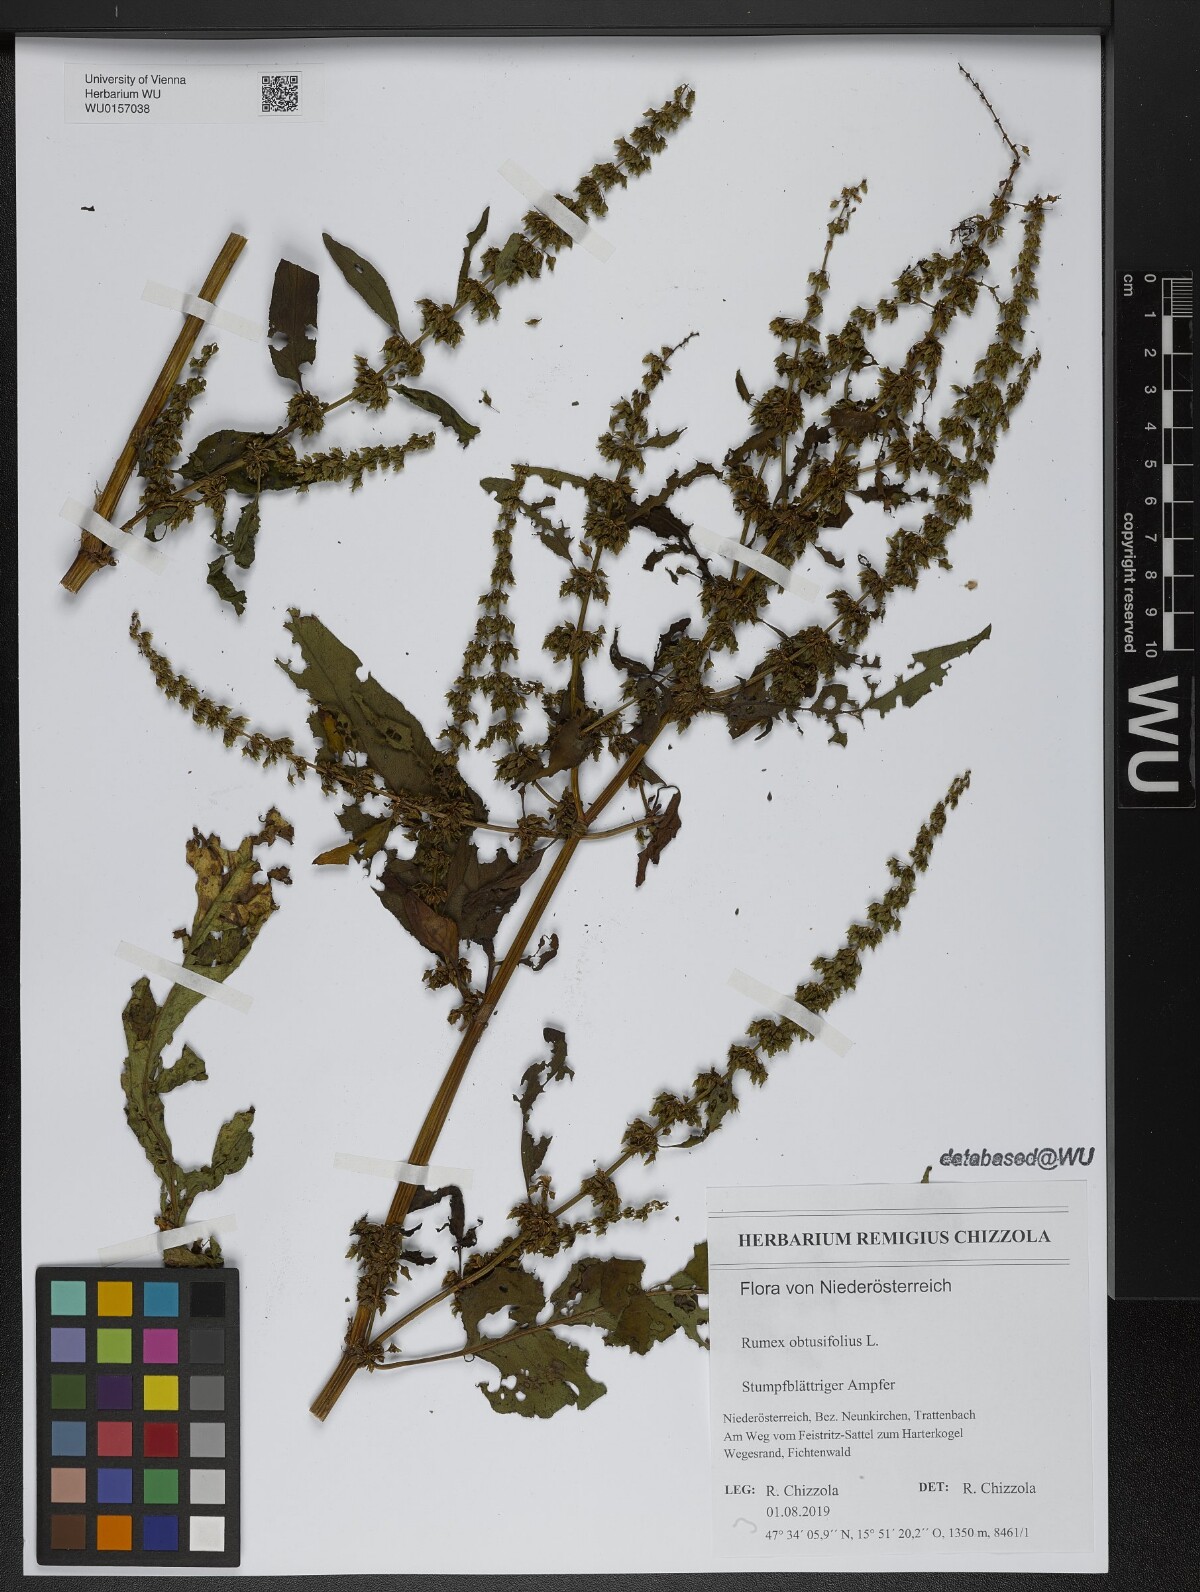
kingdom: Plantae
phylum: Tracheophyta
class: Magnoliopsida
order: Caryophyllales
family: Polygonaceae
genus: Rumex
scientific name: Rumex obtusifolius
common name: Bitter dock
